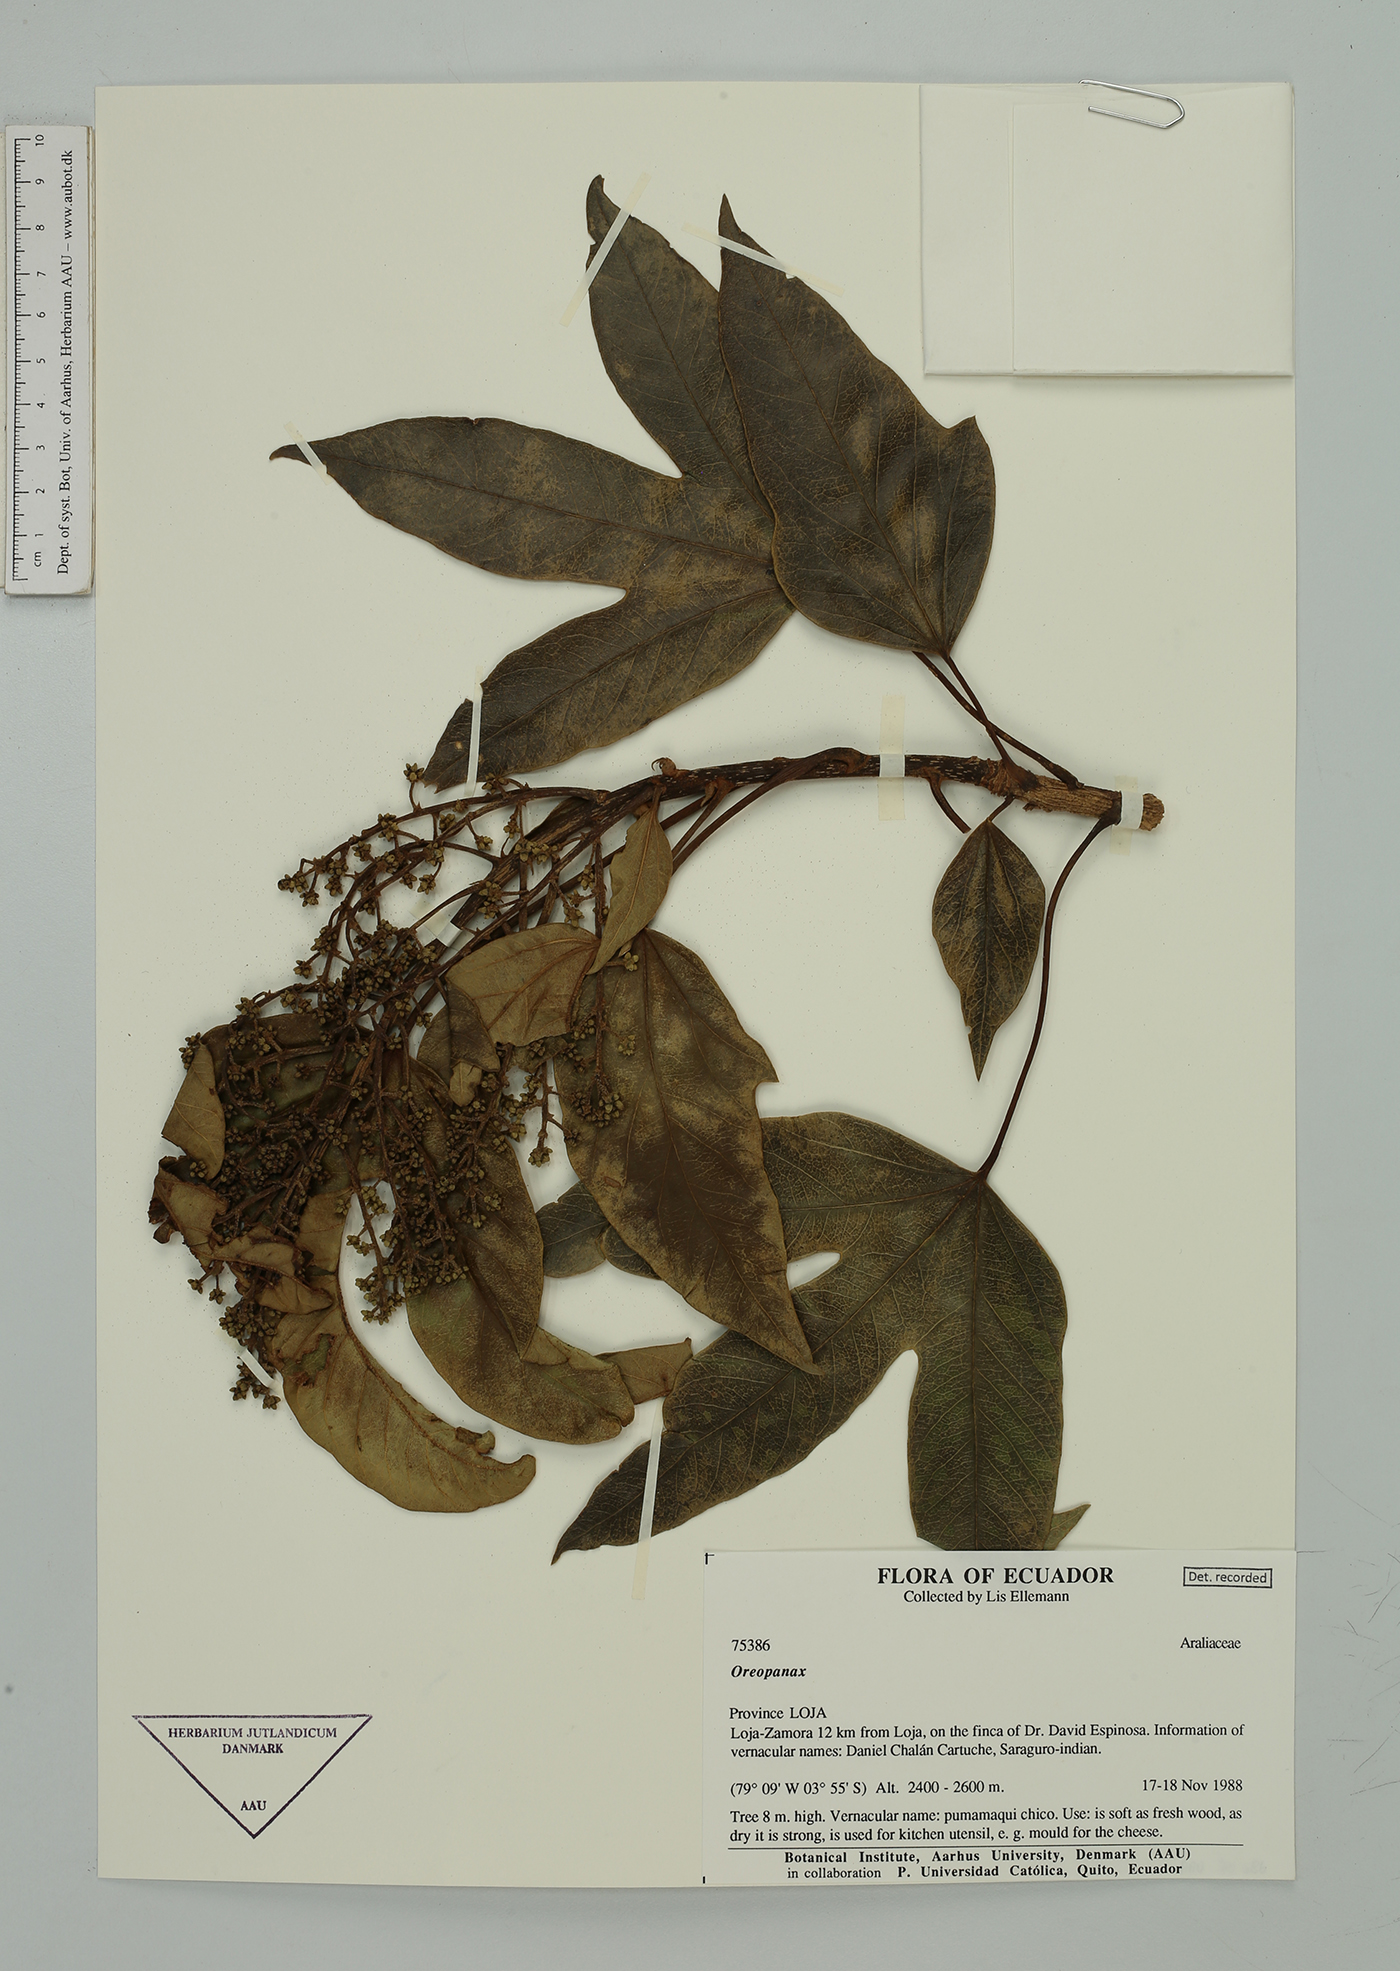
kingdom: Plantae
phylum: Tracheophyta
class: Magnoliopsida
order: Apiales
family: Araliaceae
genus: Oreopanax
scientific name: Oreopanax
